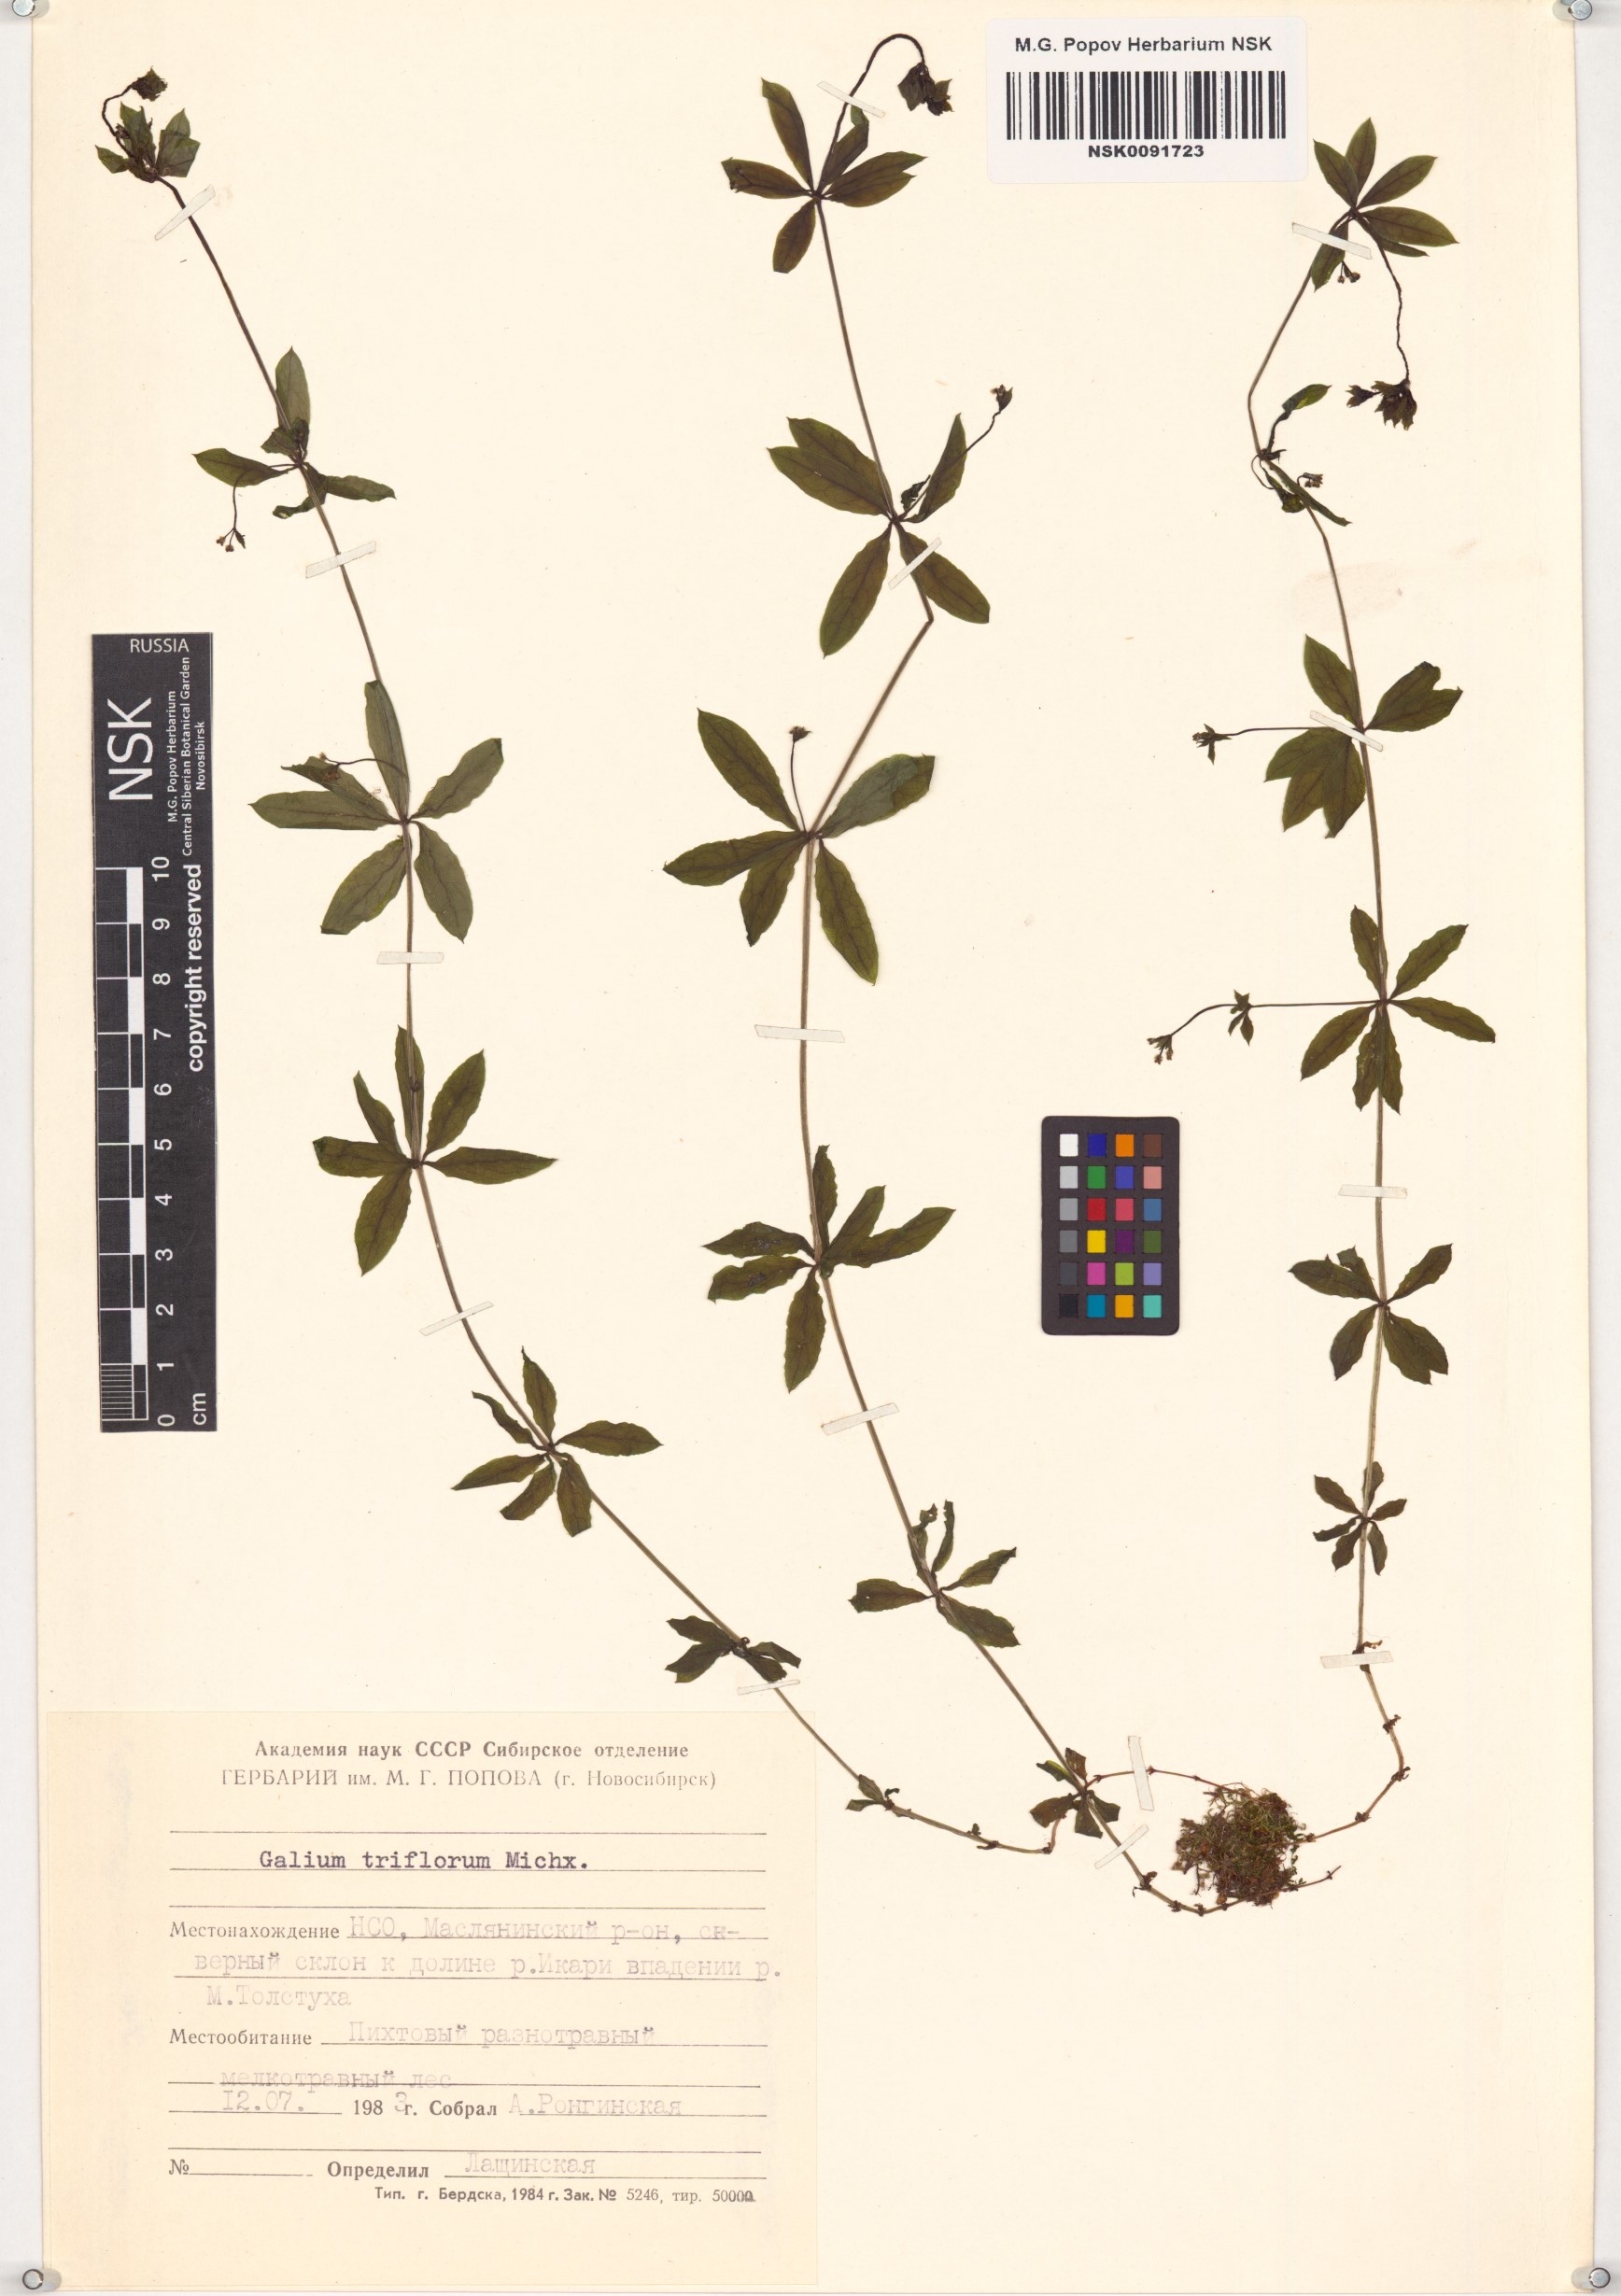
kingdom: Plantae
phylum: Tracheophyta
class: Magnoliopsida
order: Gentianales
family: Rubiaceae
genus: Galium
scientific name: Galium triflorum
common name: Fragrant bedstraw
